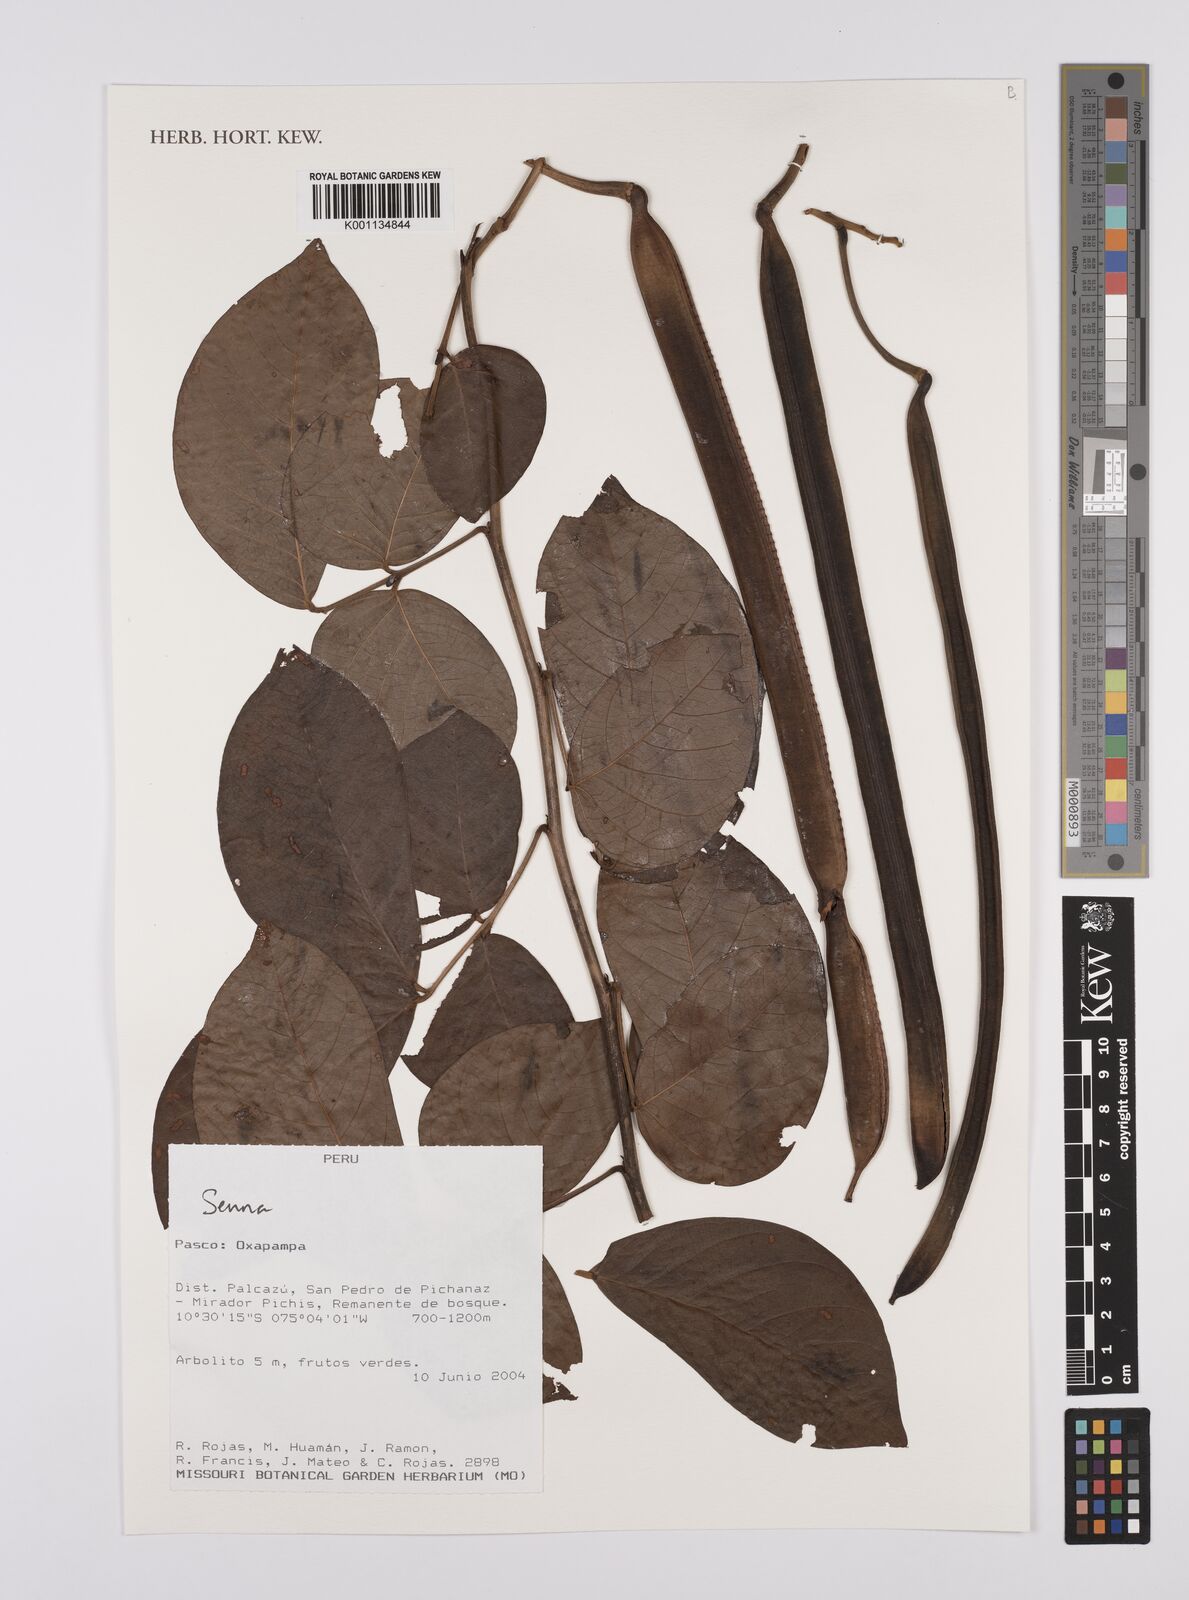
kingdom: Plantae
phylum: Tracheophyta
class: Magnoliopsida
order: Fabales
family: Fabaceae
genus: Senna
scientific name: Senna
